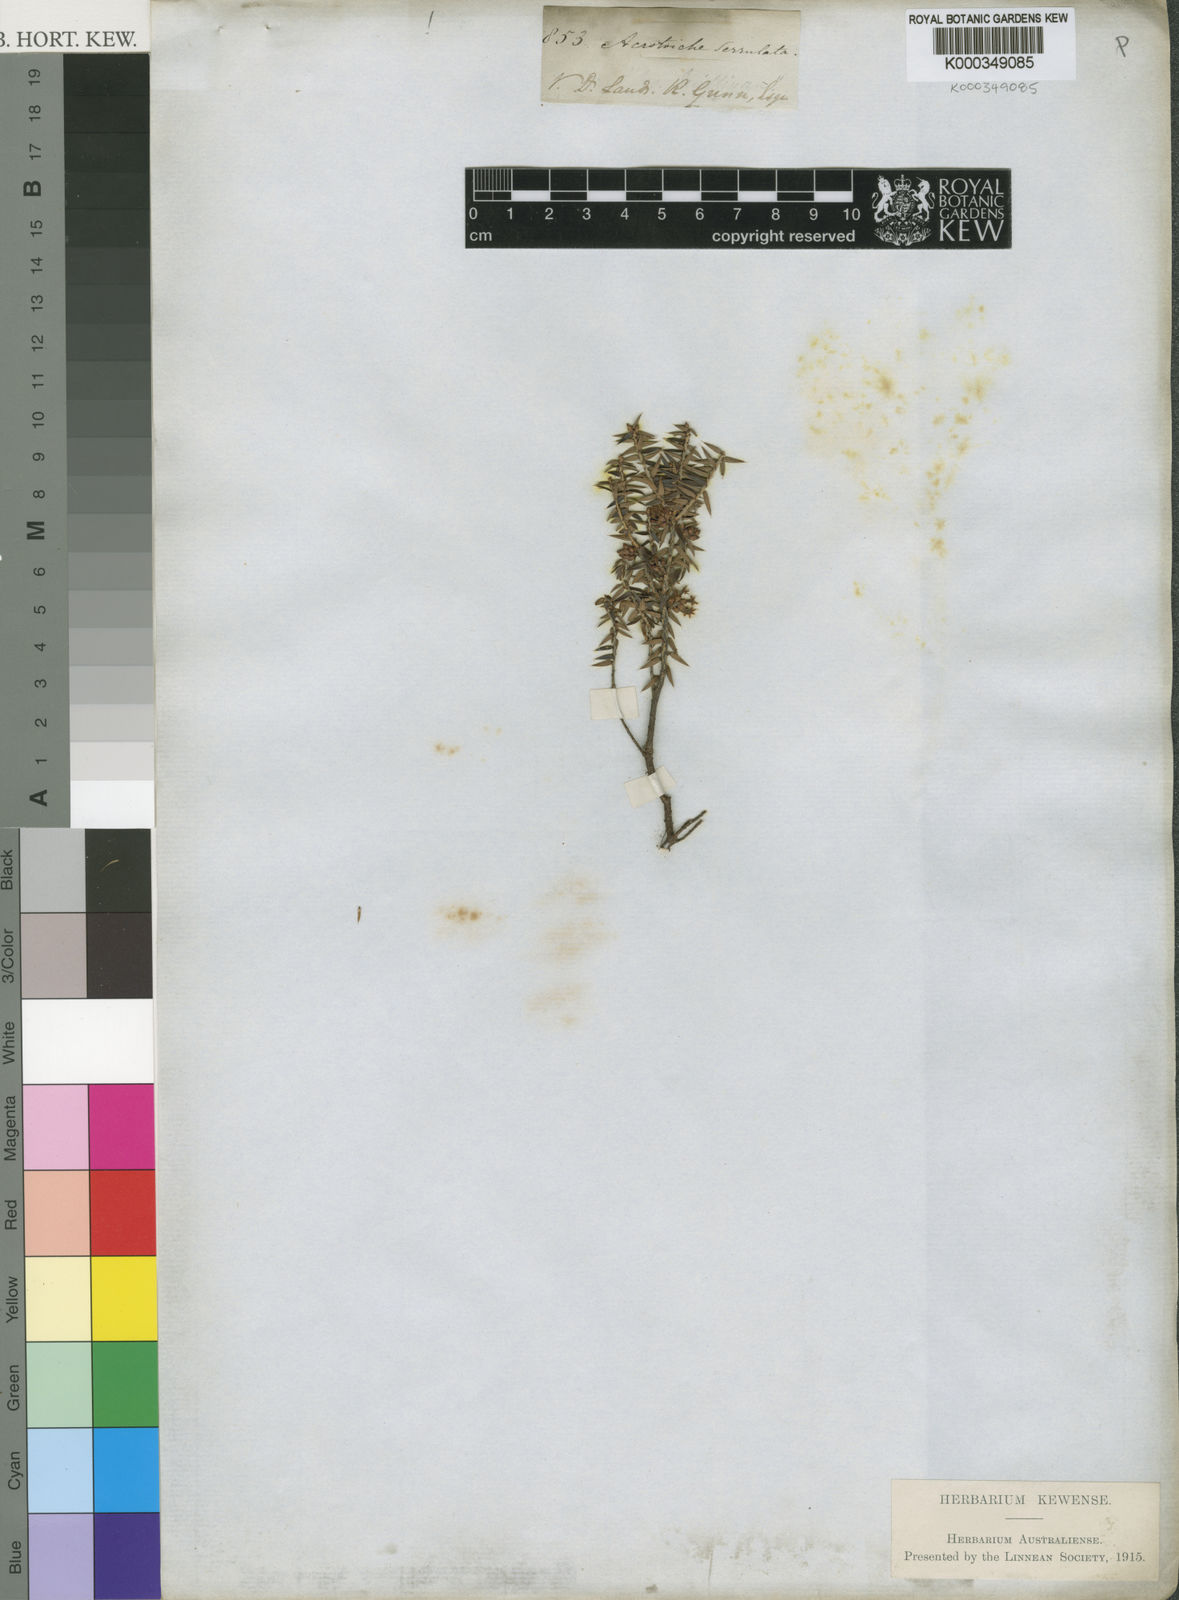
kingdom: Plantae
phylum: Tracheophyta
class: Magnoliopsida
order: Ericales
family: Ericaceae
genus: Acrotriche
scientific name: Acrotriche serrulata
